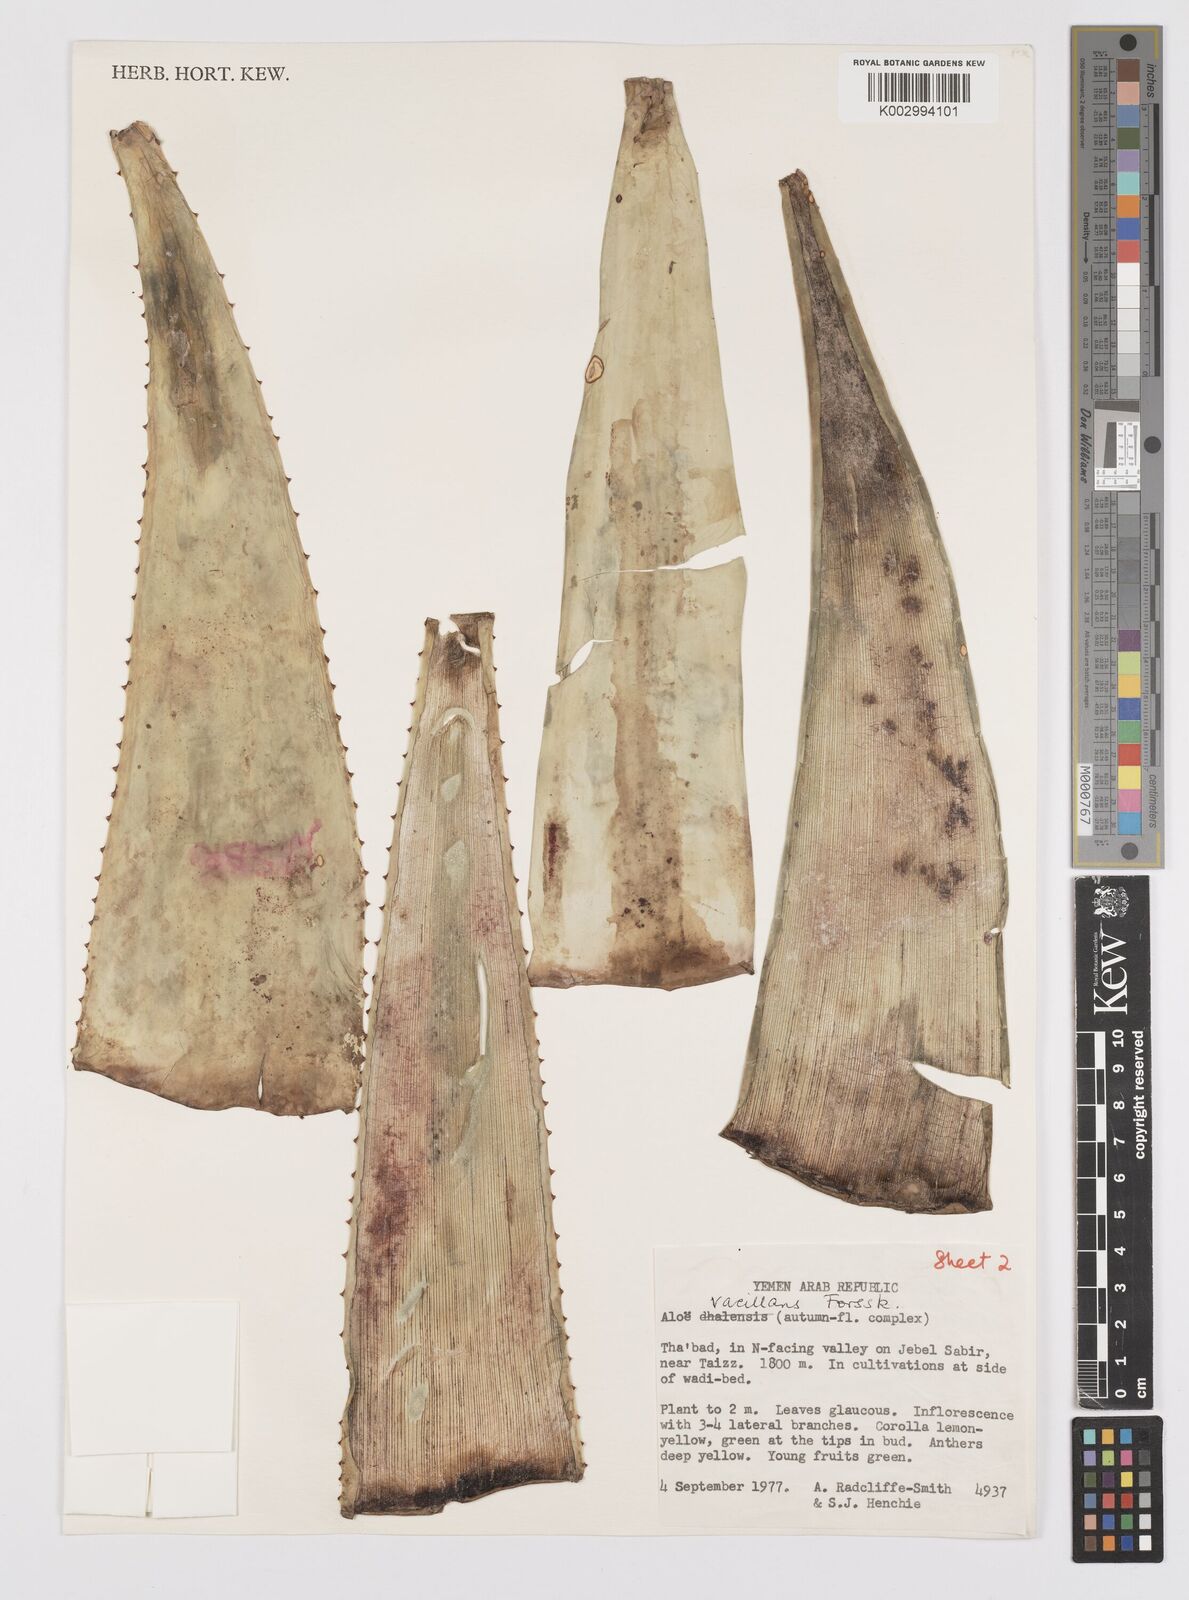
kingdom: Plantae
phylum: Tracheophyta
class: Liliopsida
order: Asparagales
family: Asphodelaceae
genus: Aloe
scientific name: Aloe vacillans
